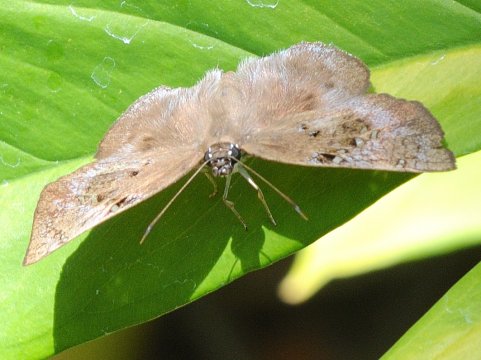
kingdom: Animalia
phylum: Arthropoda
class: Insecta
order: Lepidoptera
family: Hesperiidae
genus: Tagiades
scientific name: Tagiades flesus
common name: Clouded Flat
